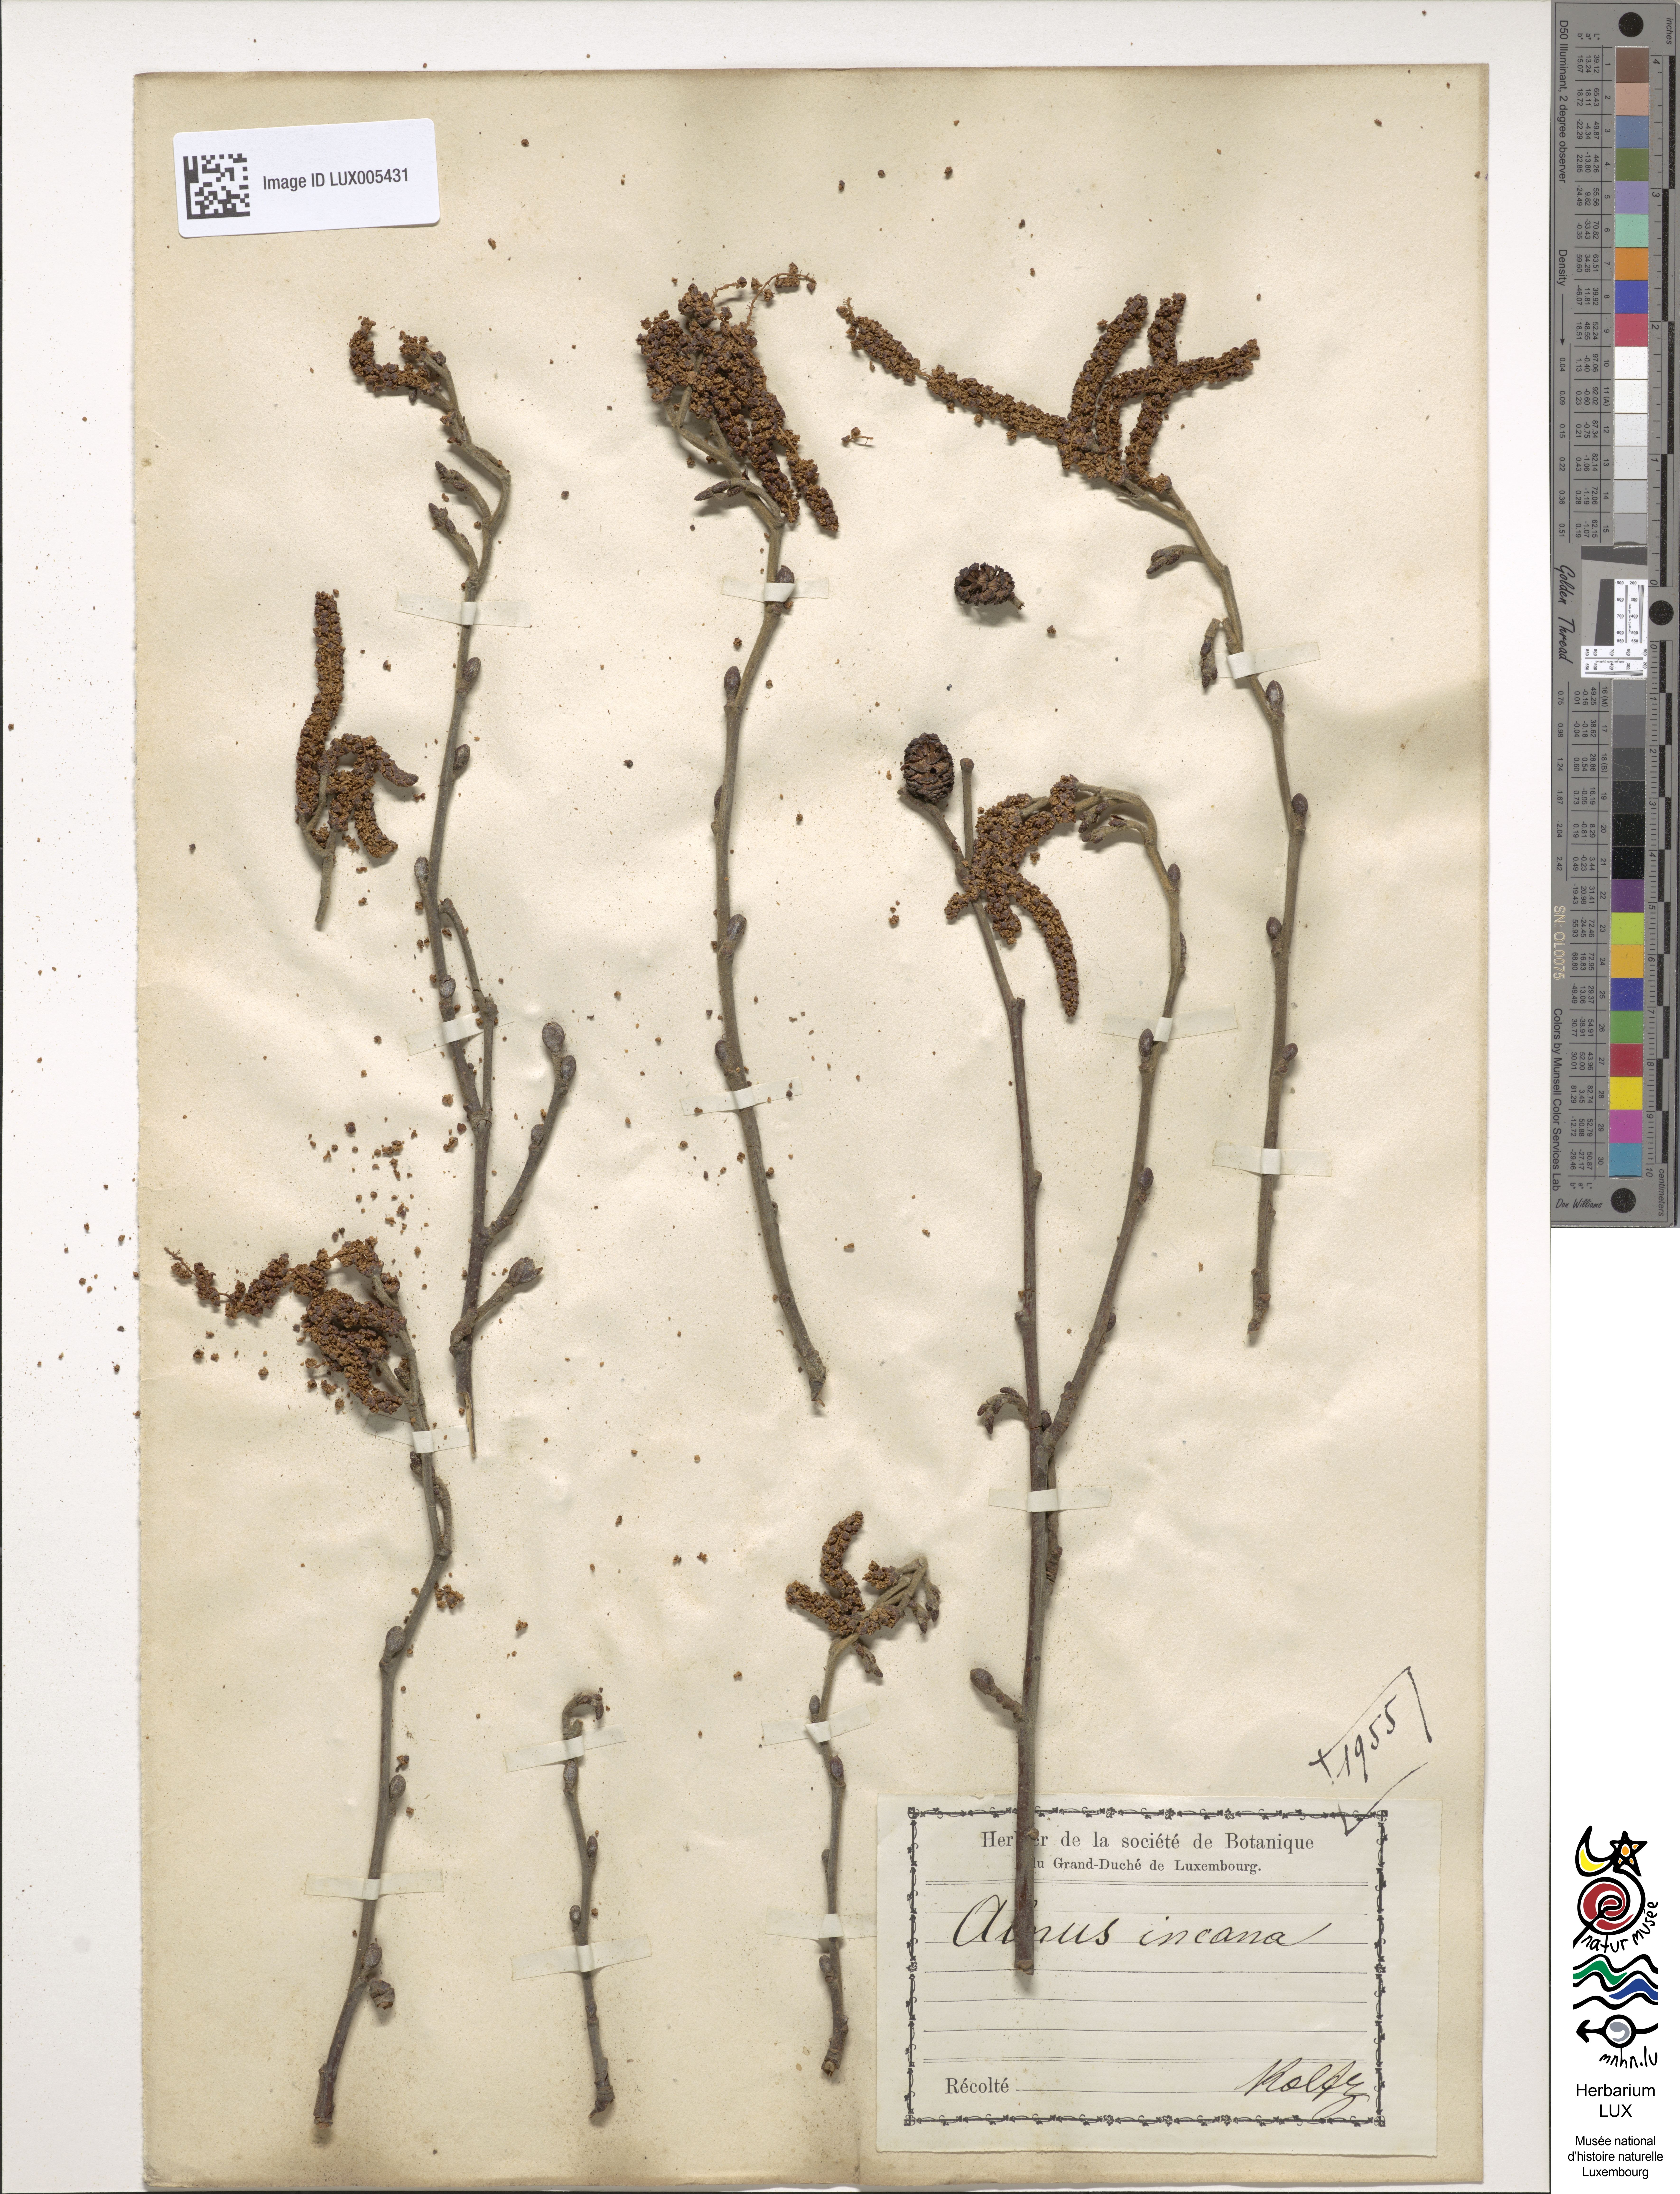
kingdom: Plantae
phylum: Tracheophyta
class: Magnoliopsida
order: Fagales
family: Betulaceae
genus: Alnus
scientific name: Alnus incana
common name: Grey alder
